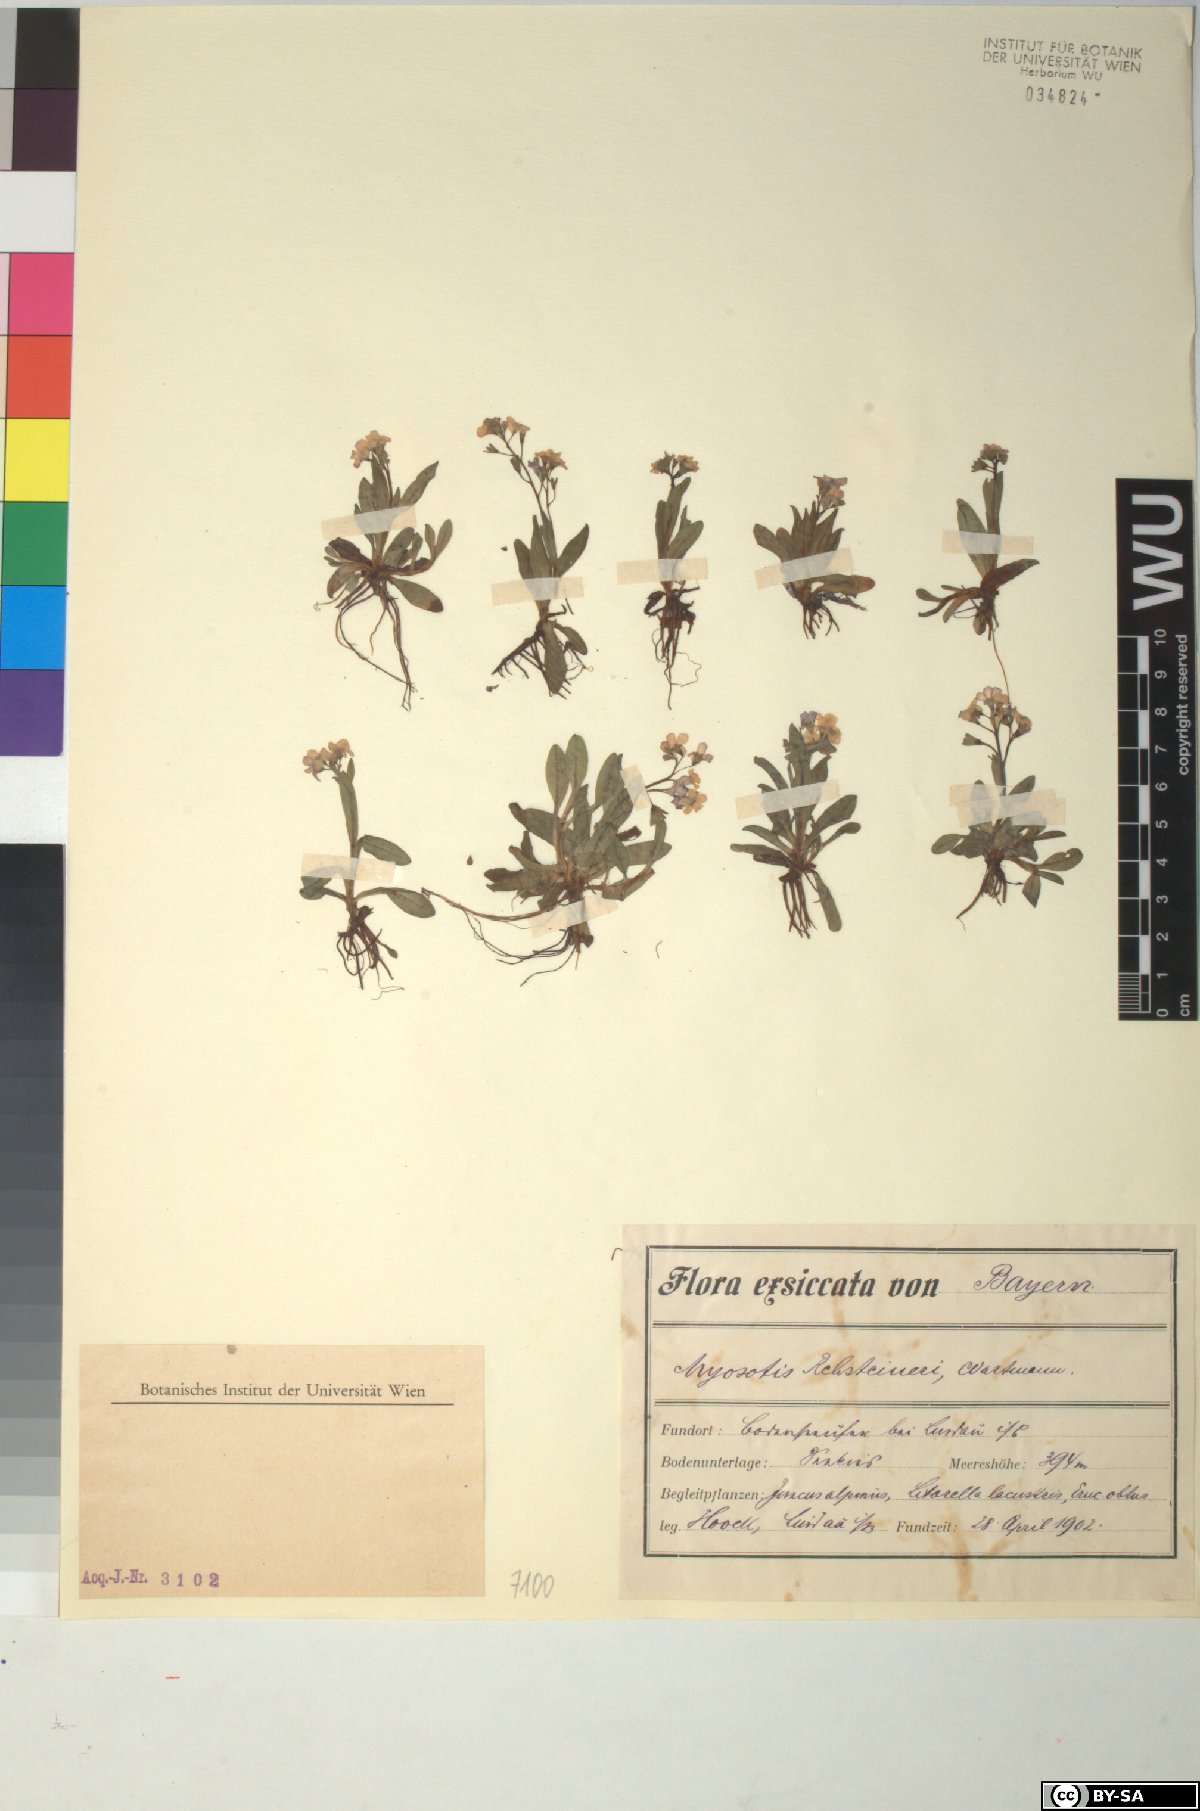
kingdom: Plantae
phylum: Tracheophyta
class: Magnoliopsida
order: Boraginales
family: Boraginaceae
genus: Myosotis
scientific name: Myosotis rehsteineri
